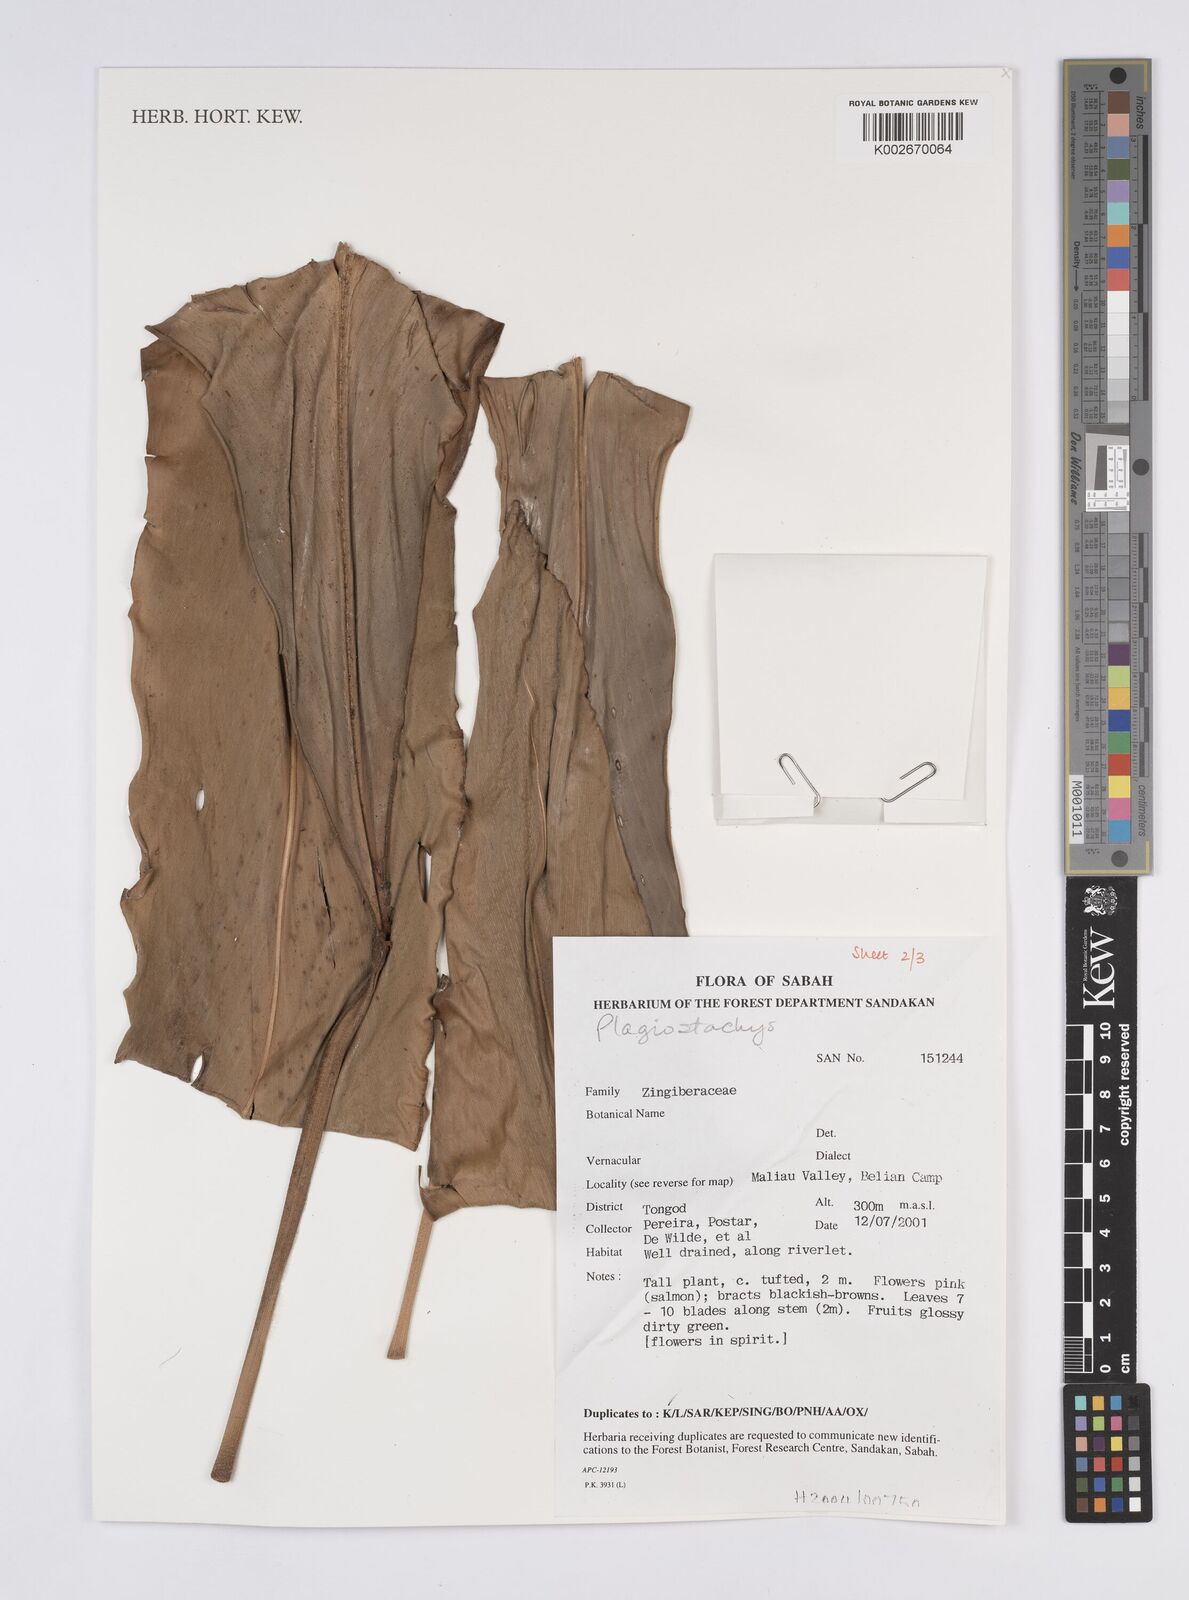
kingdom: Plantae
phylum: Tracheophyta
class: Liliopsida
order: Zingiberales
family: Zingiberaceae
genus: Plagiostachys
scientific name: Plagiostachys
